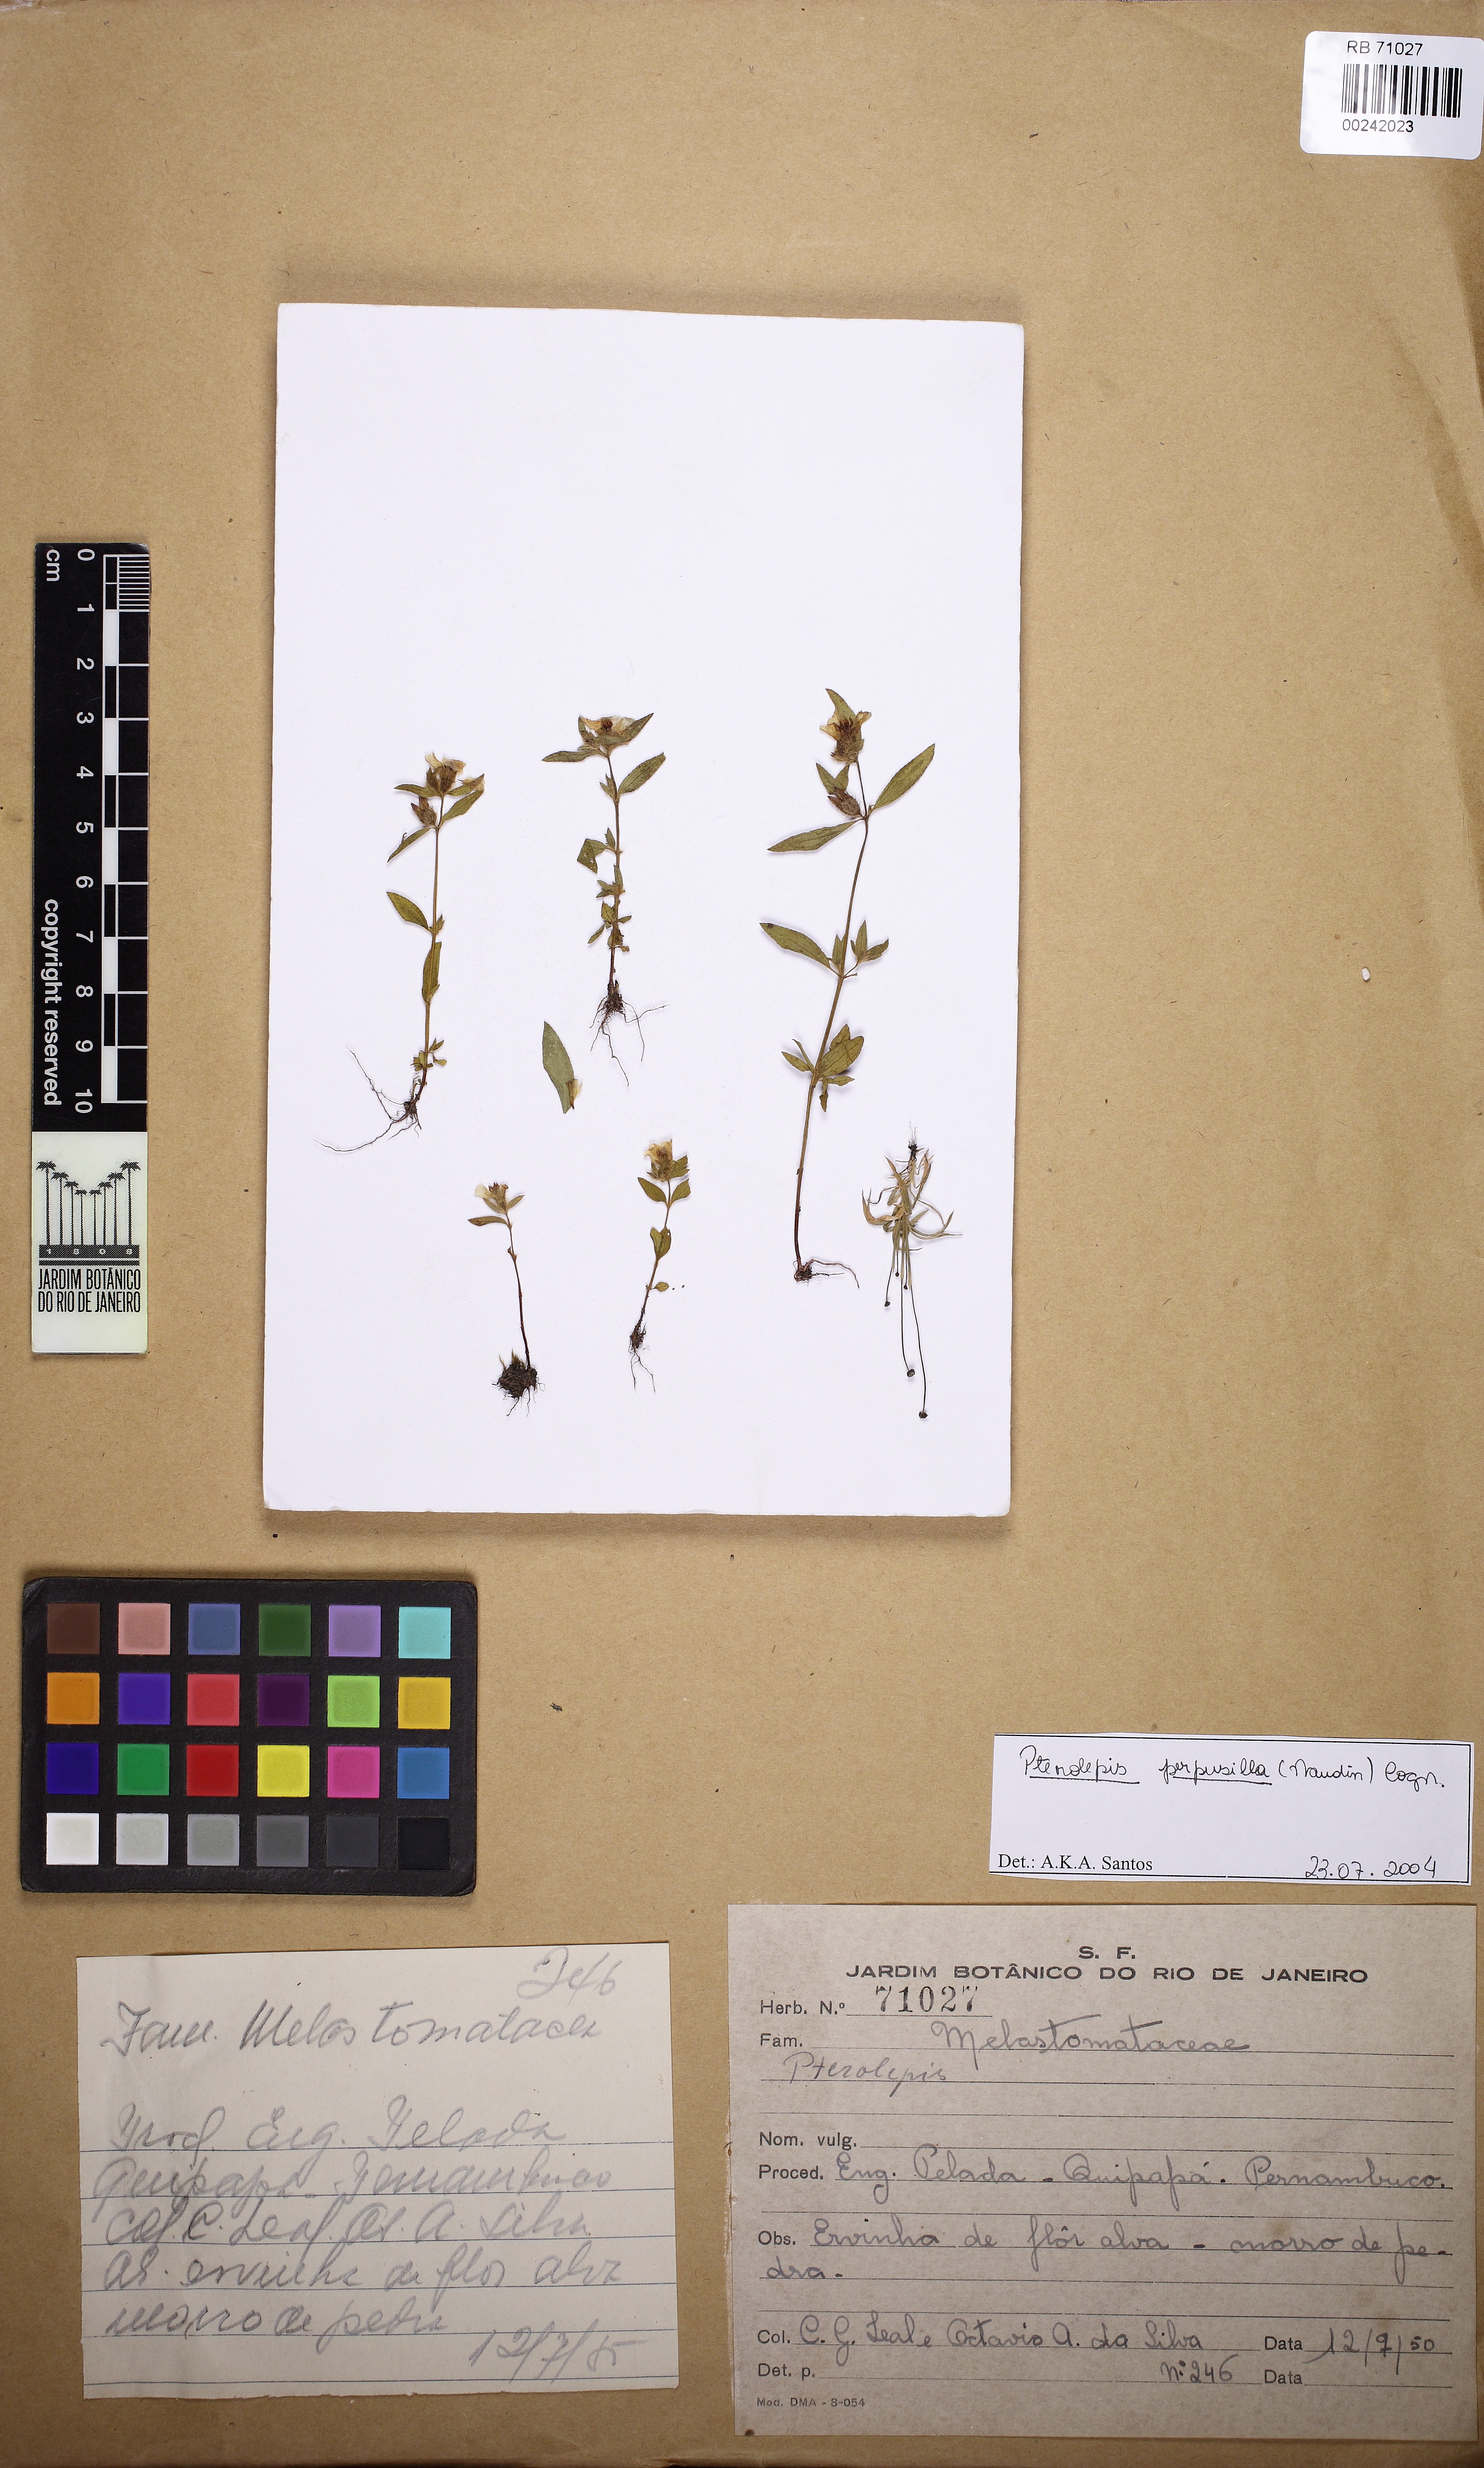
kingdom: Plantae
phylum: Tracheophyta
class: Magnoliopsida
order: Myrtales
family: Melastomataceae
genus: Pterolepis
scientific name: Pterolepis perpusilla
